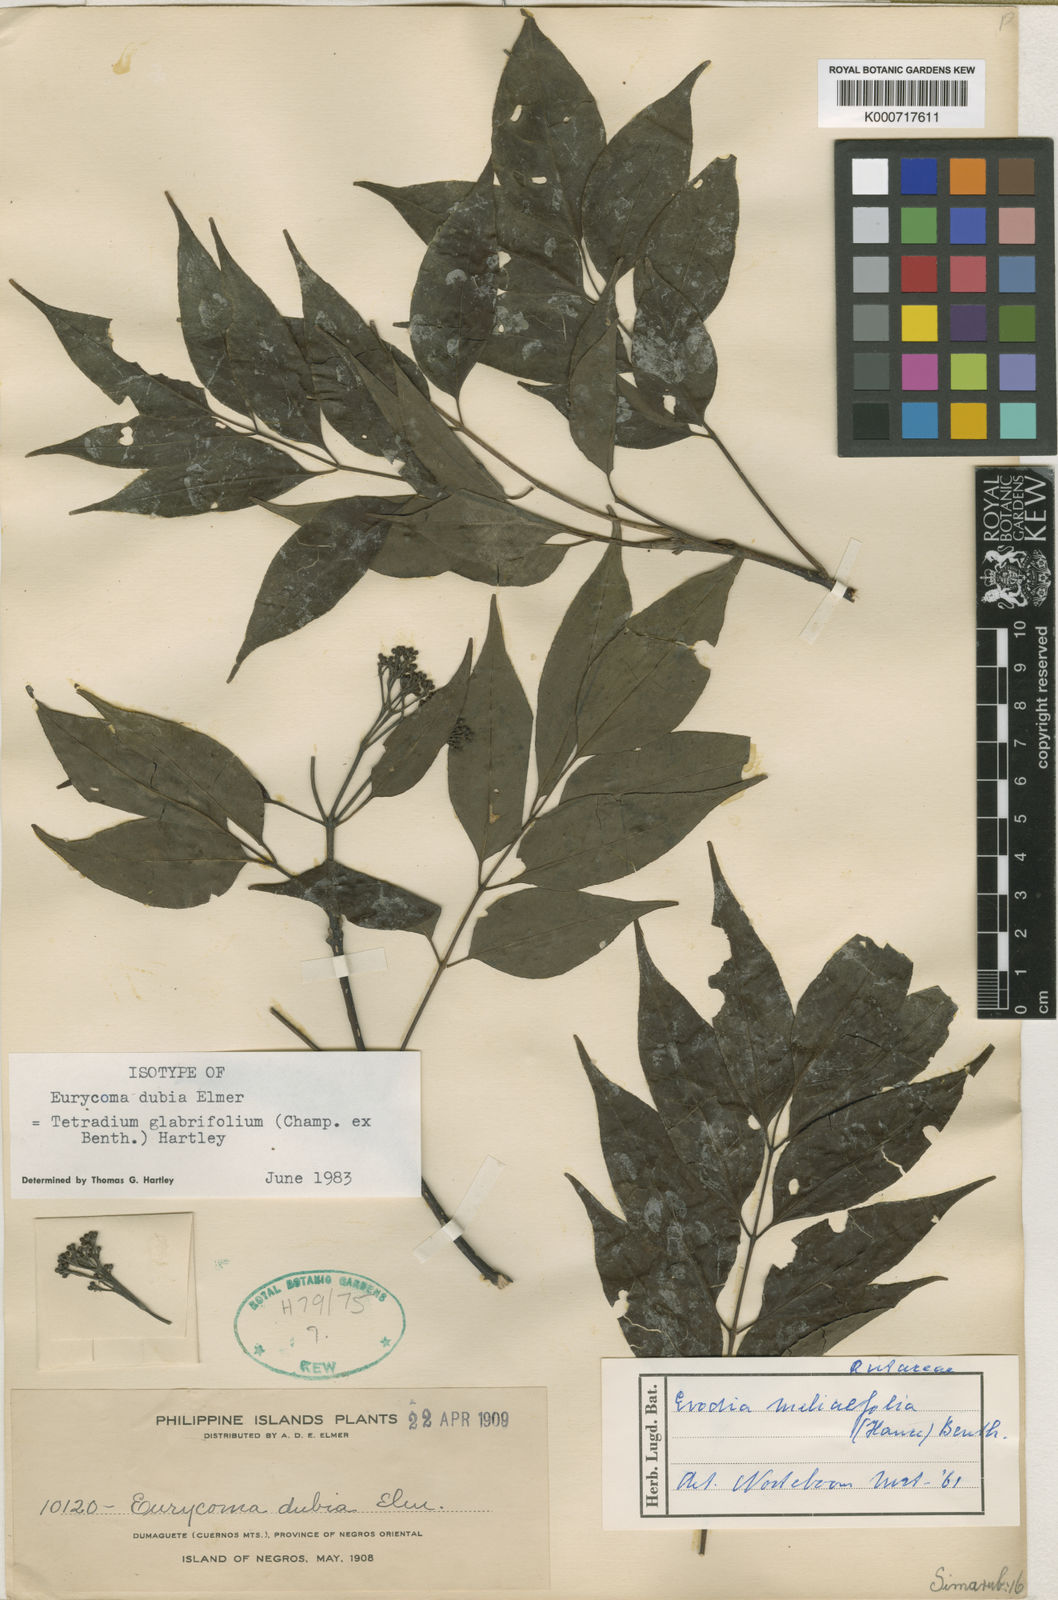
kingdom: Plantae
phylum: Tracheophyta
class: Magnoliopsida
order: Sapindales
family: Rutaceae
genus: Tetradium
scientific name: Tetradium glabrifolium
